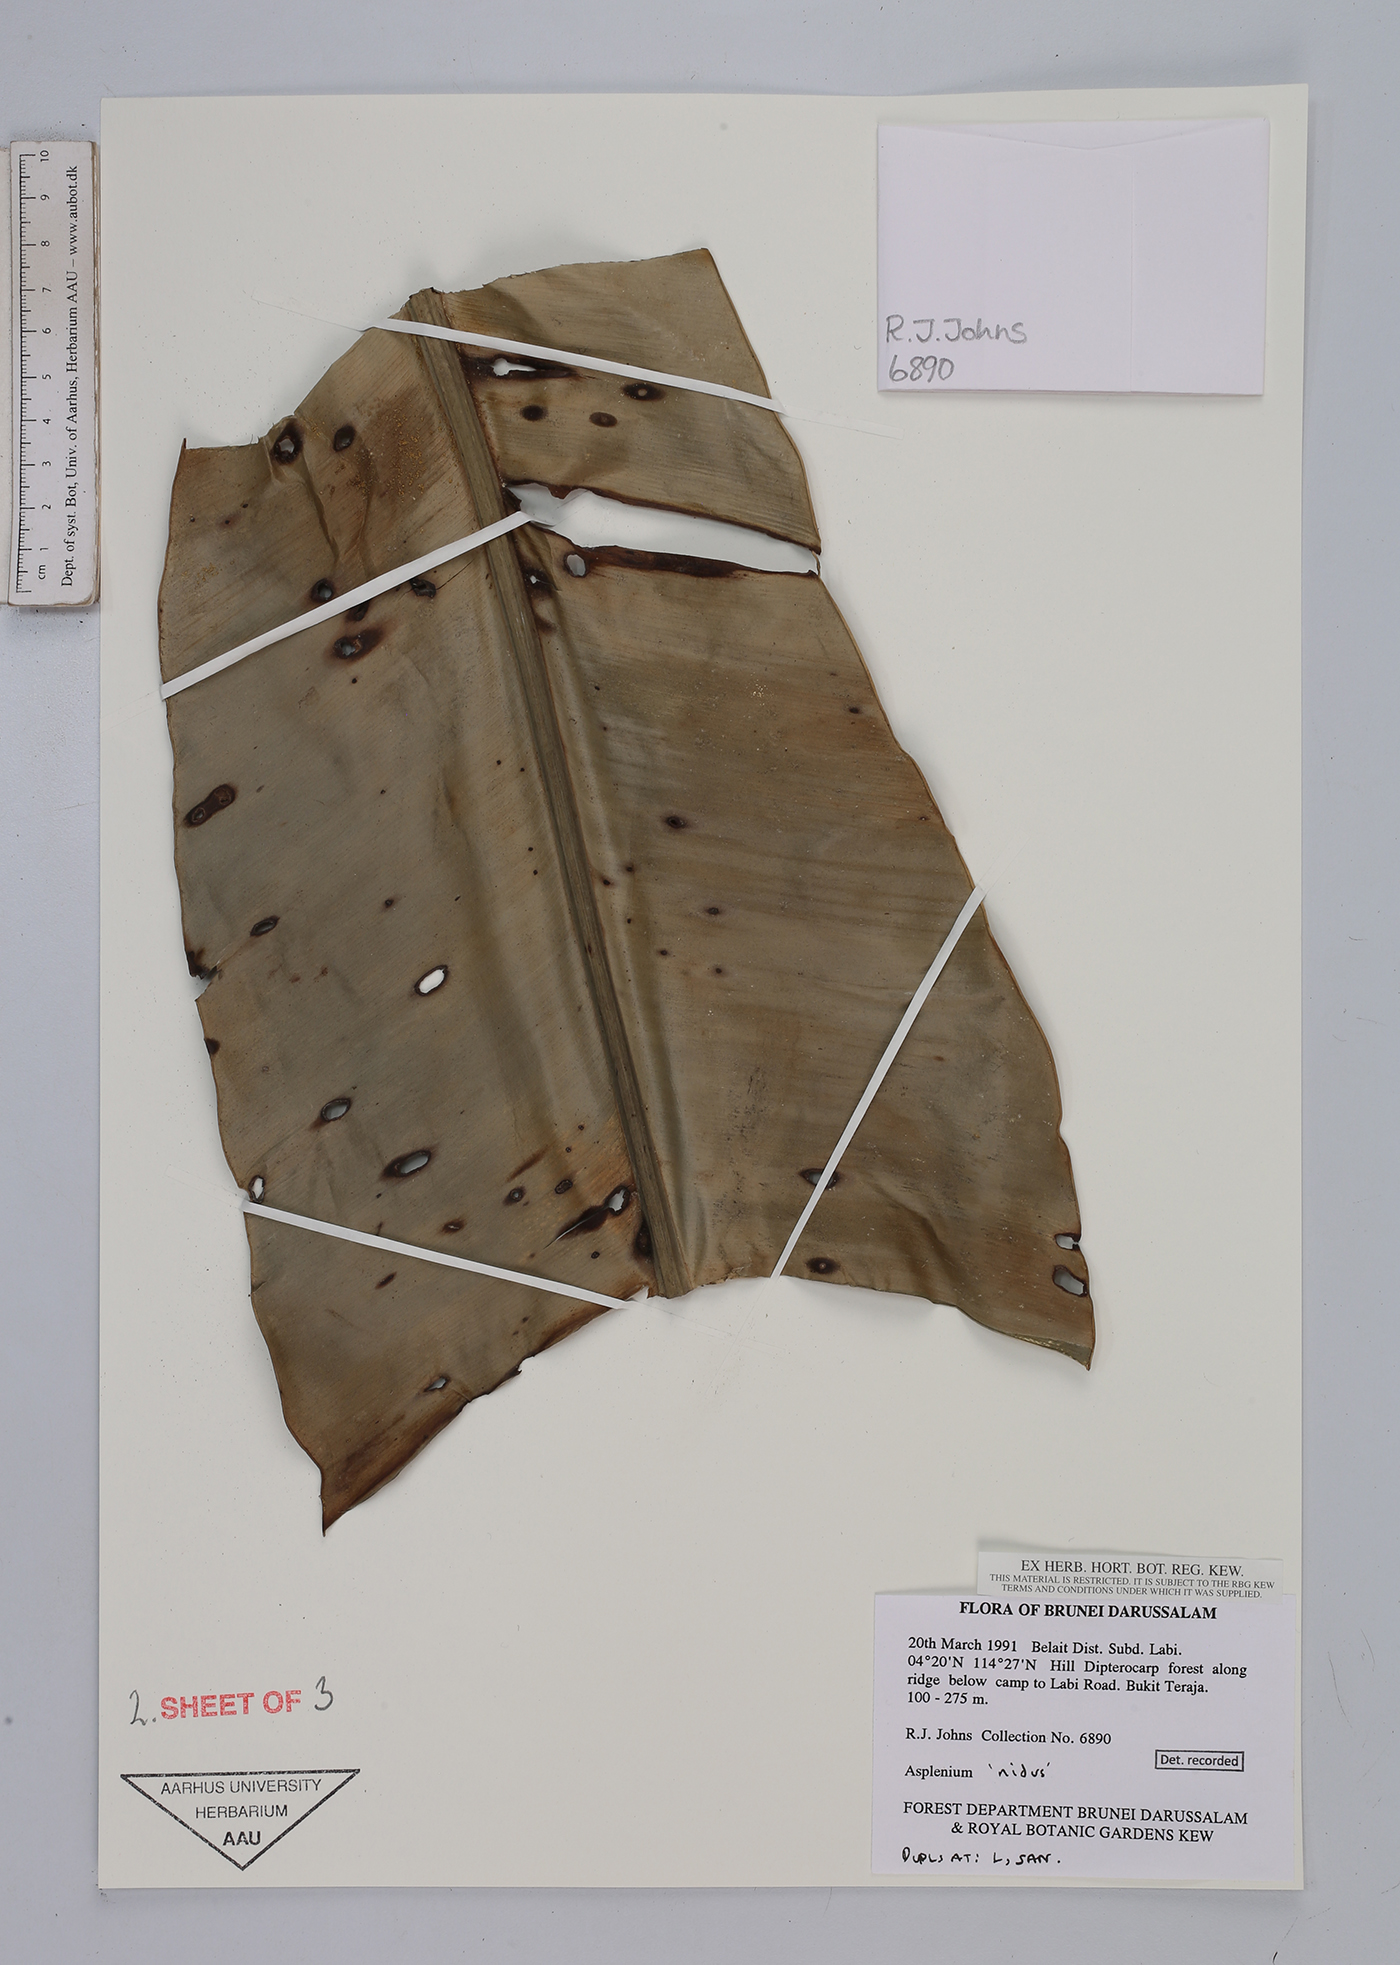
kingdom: Plantae
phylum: Tracheophyta
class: Polypodiopsida
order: Polypodiales
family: Aspleniaceae
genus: Asplenium
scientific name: Asplenium
